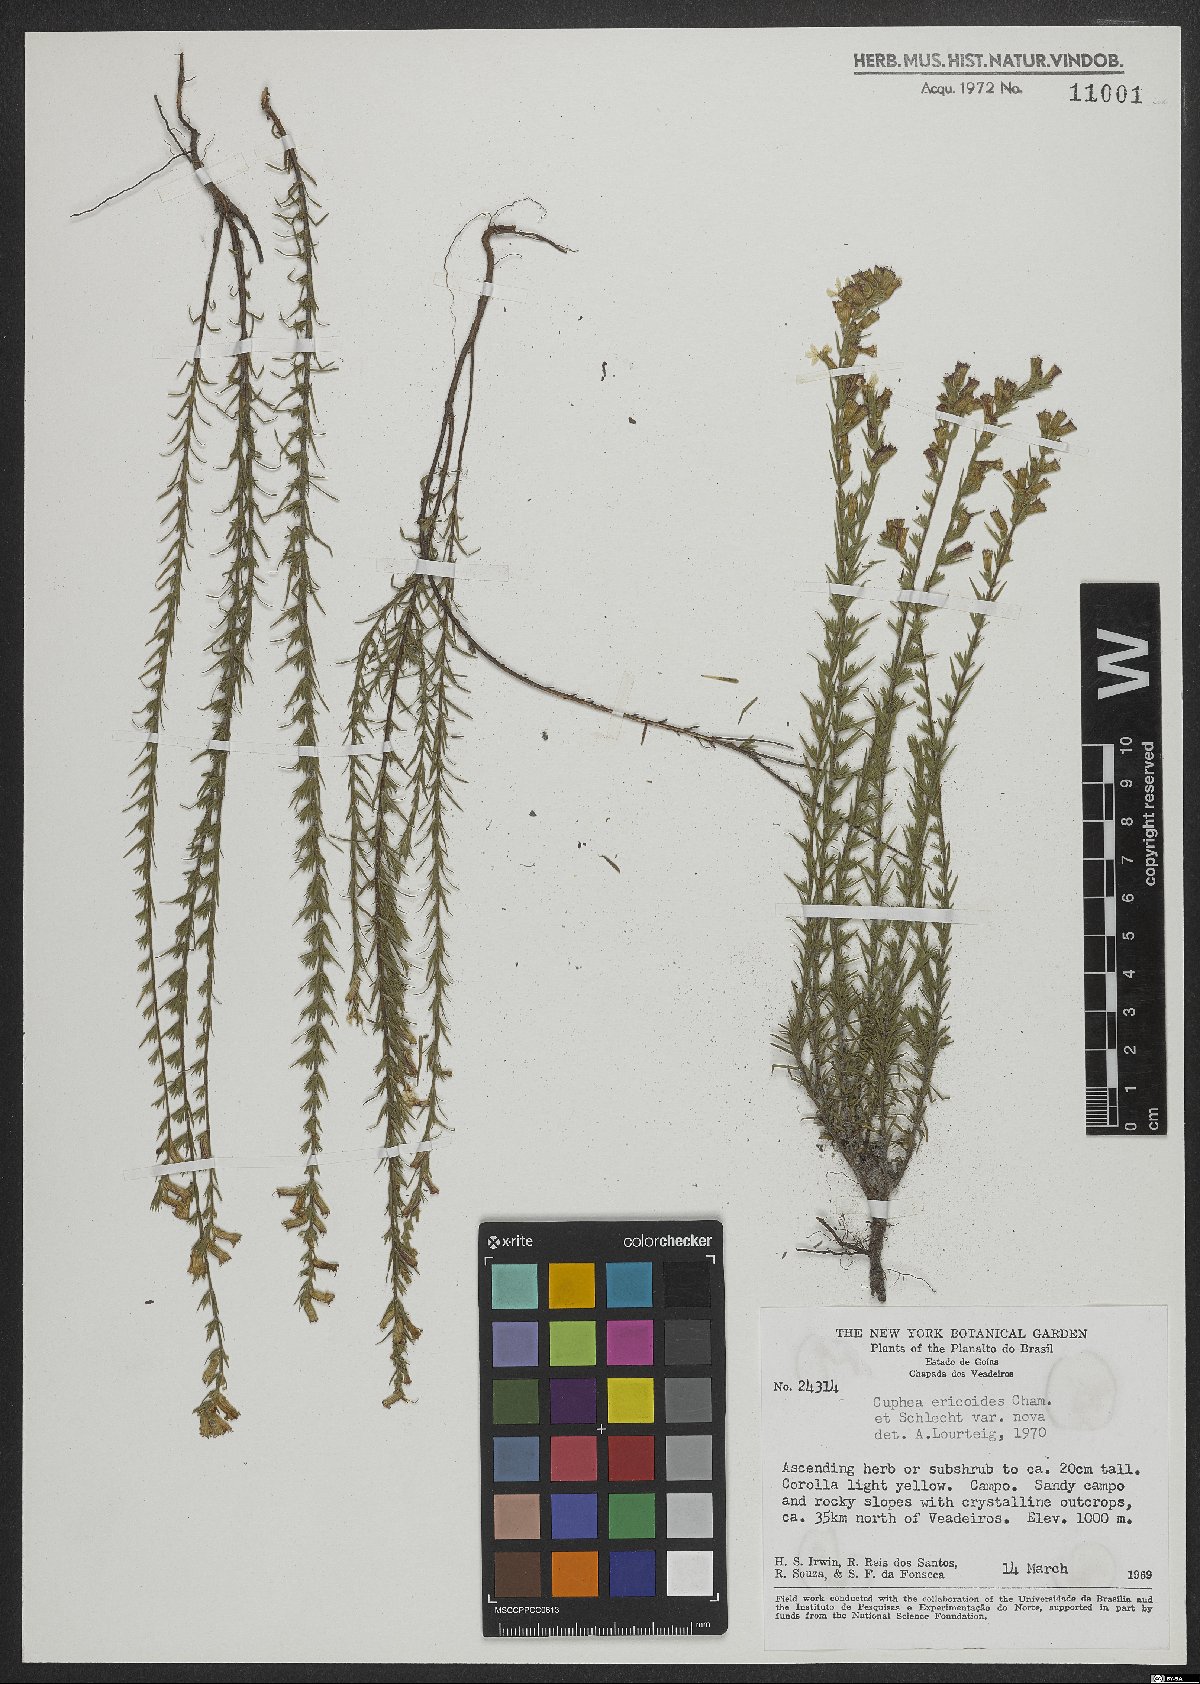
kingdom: Plantae
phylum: Tracheophyta
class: Magnoliopsida
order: Myrtales
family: Lythraceae
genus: Cuphea
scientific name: Cuphea ericoides
